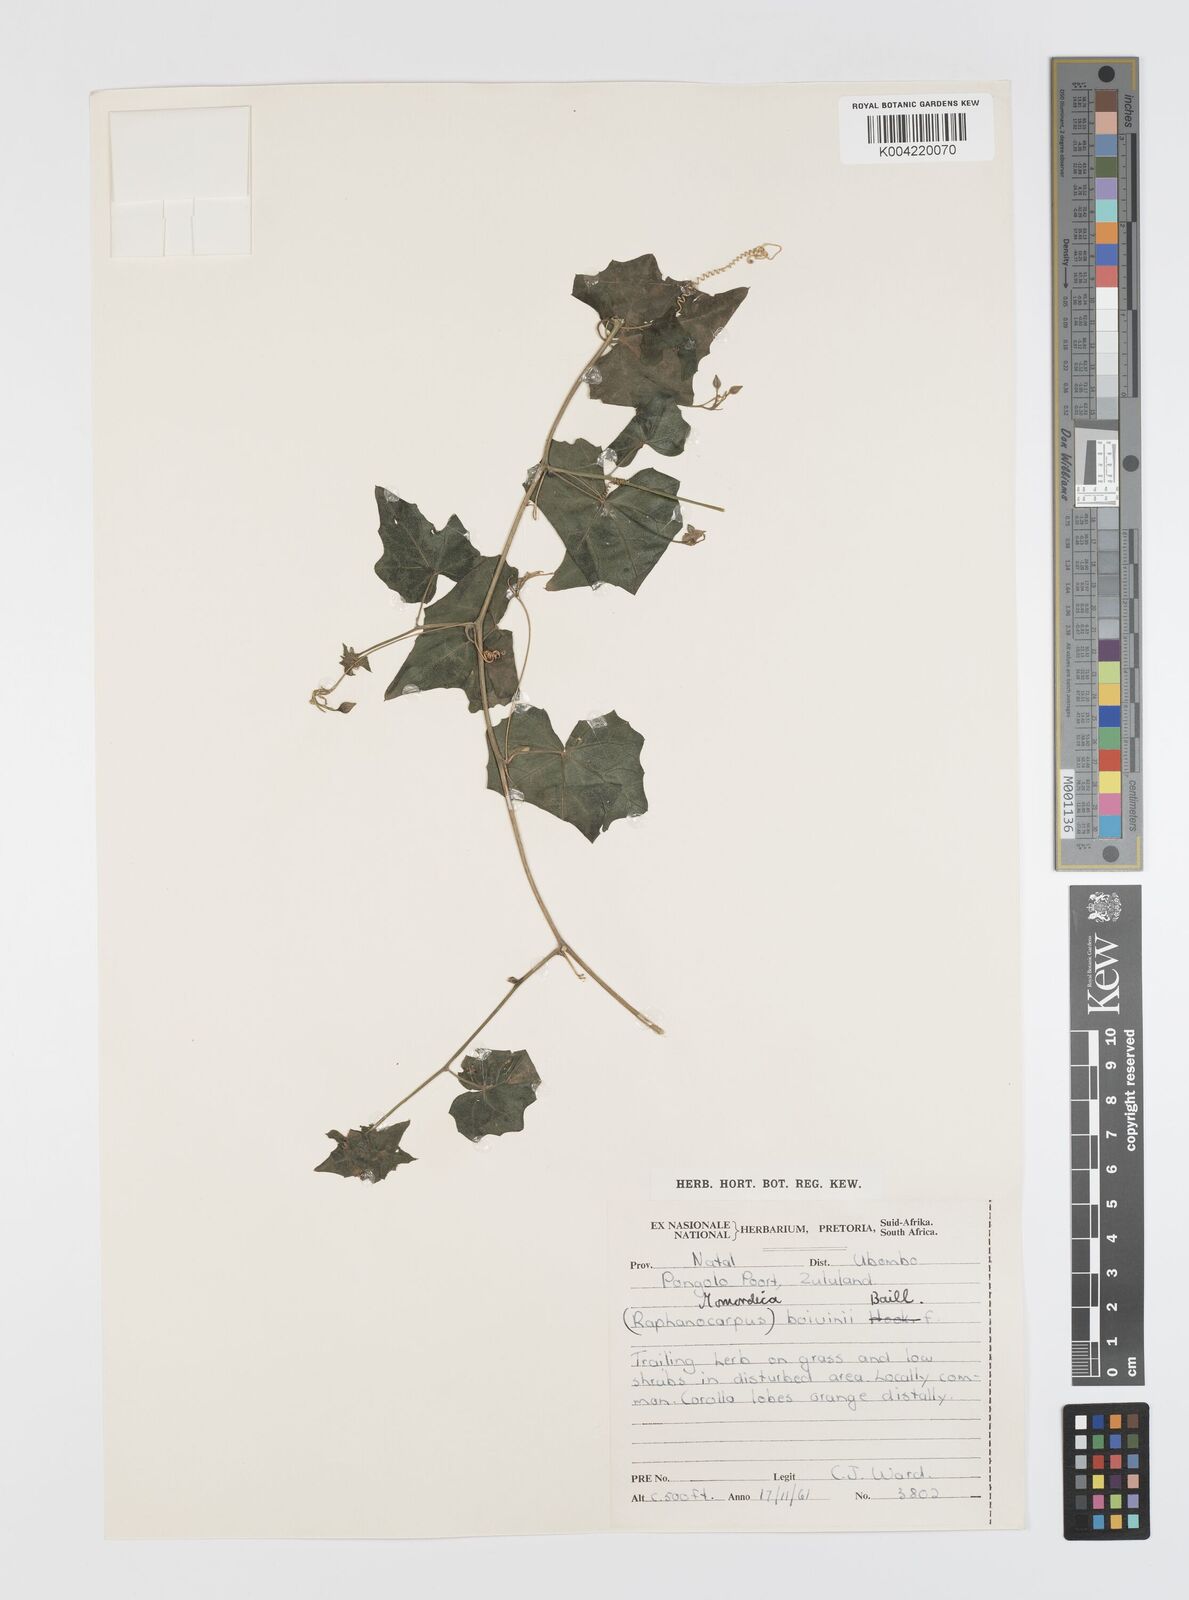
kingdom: Plantae
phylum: Tracheophyta
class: Magnoliopsida
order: Cucurbitales
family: Cucurbitaceae
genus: Momordica
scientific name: Momordica boivinii
